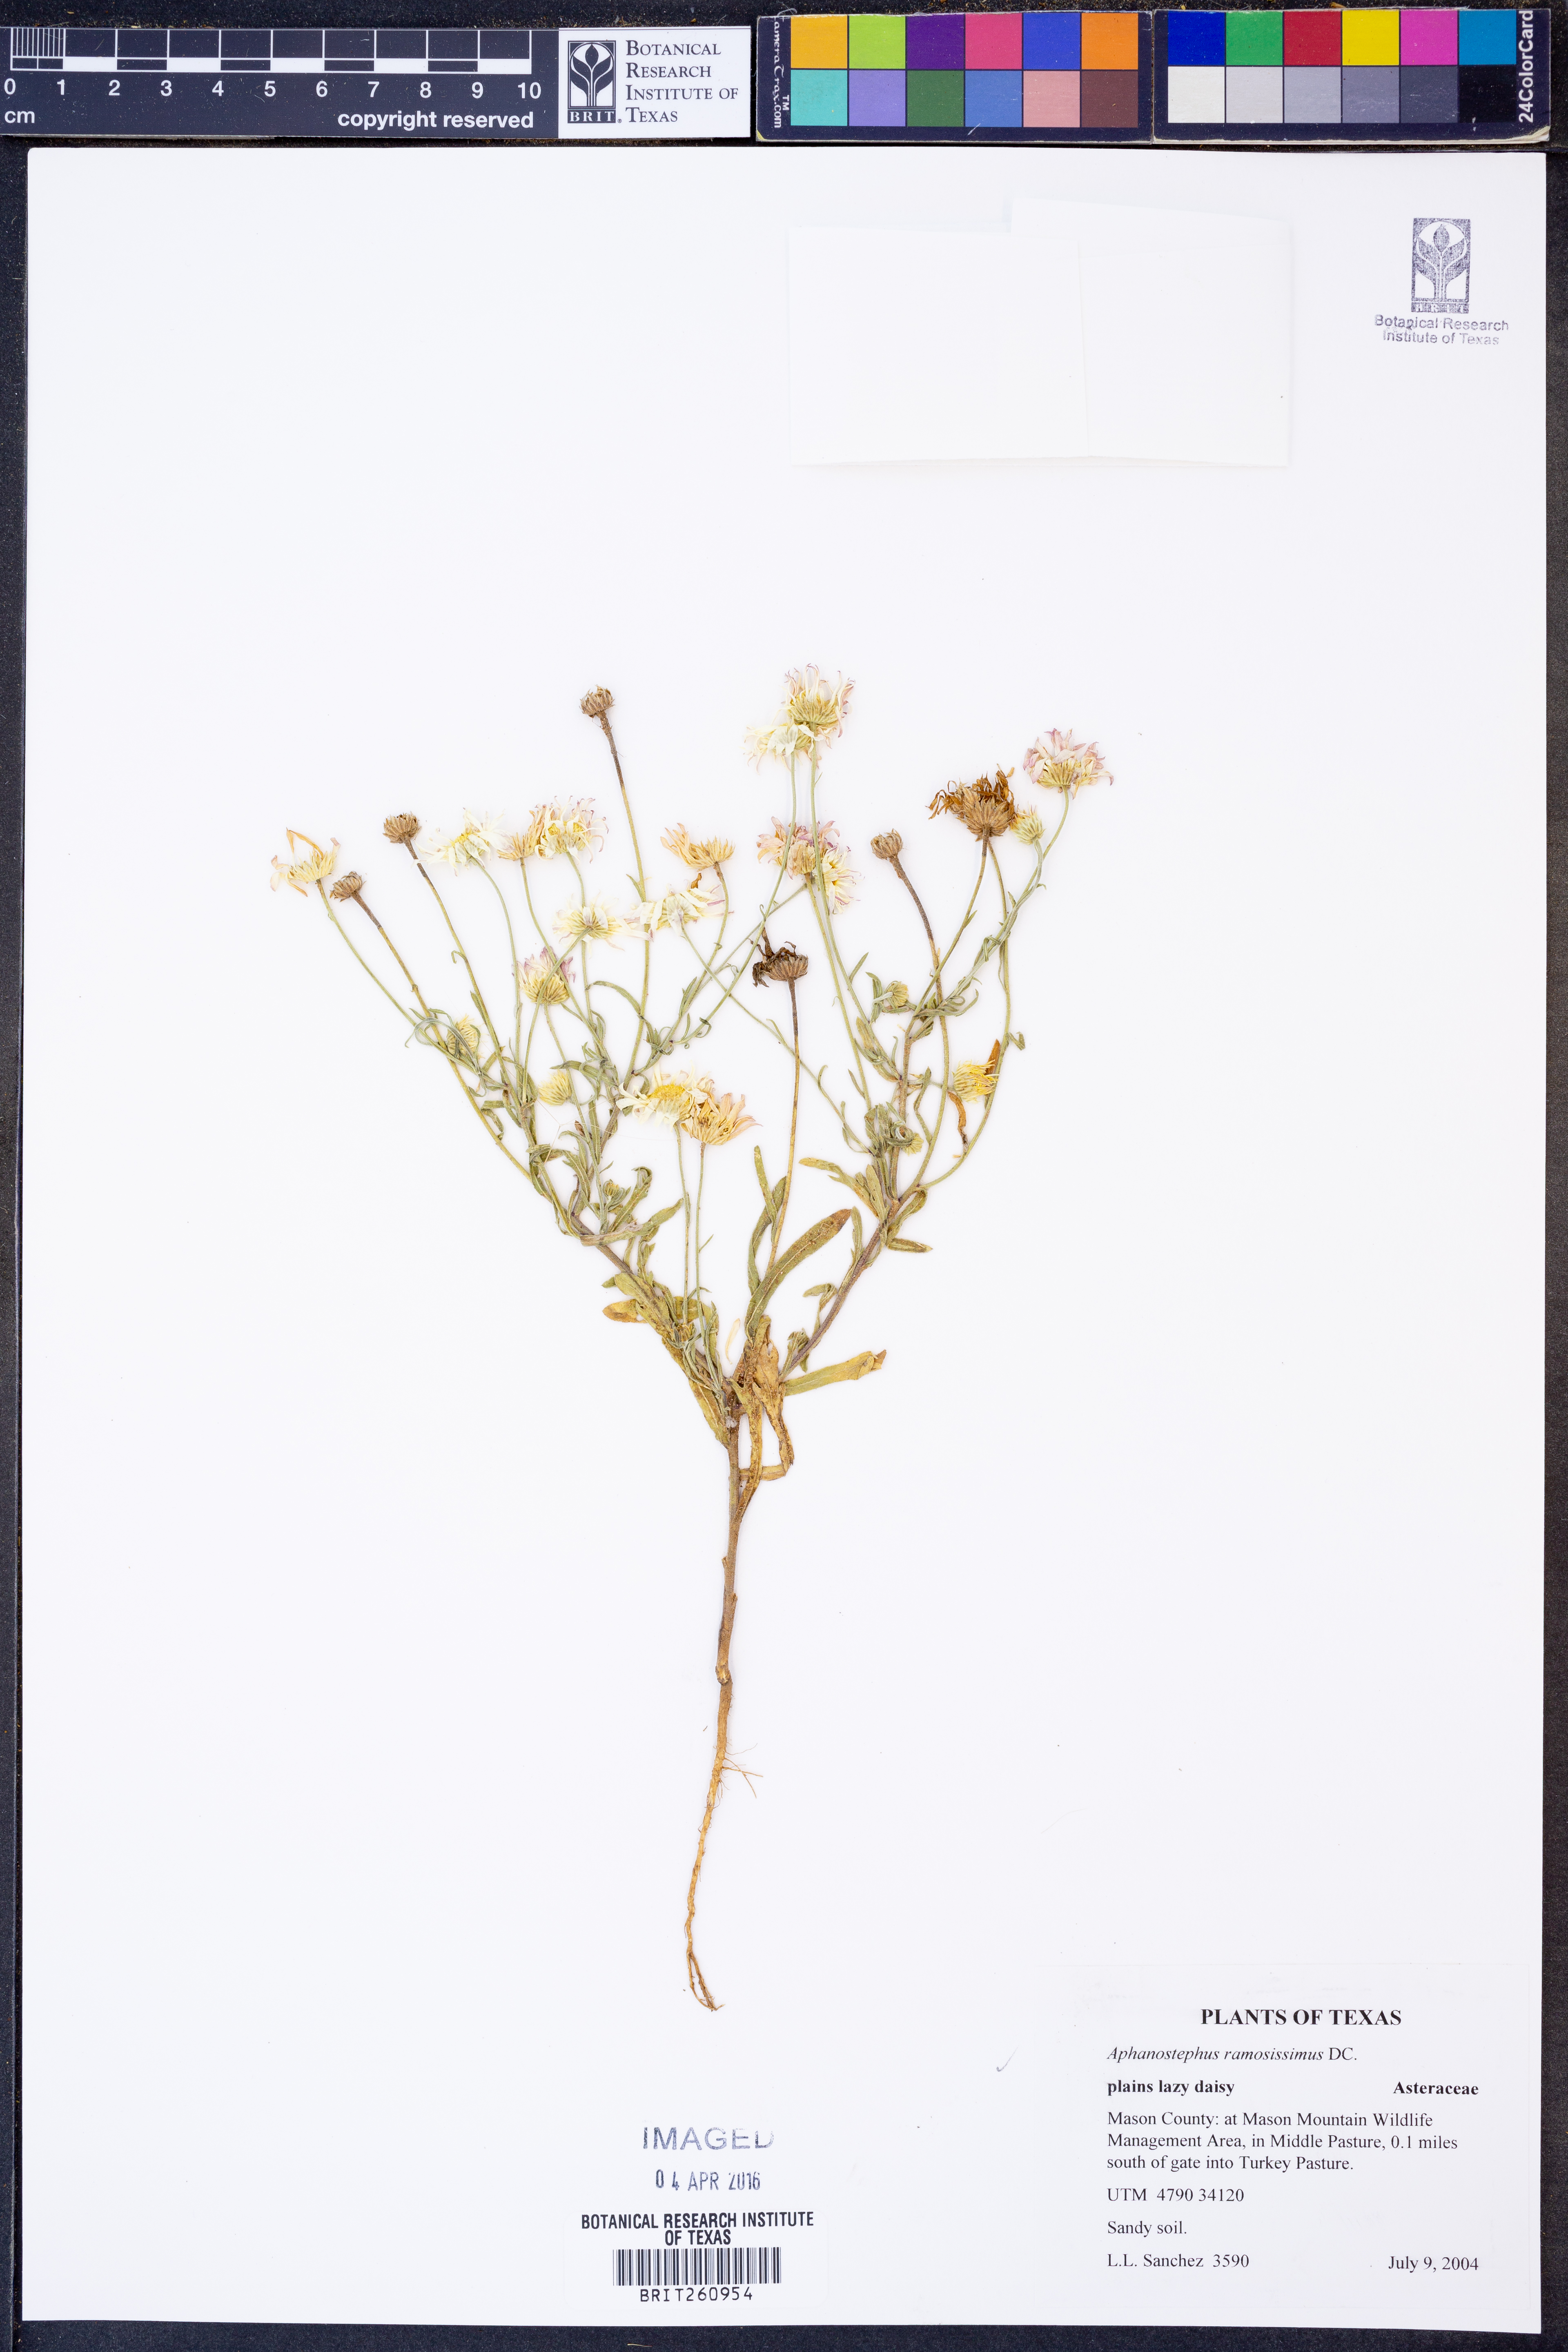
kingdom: Plantae
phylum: Tracheophyta
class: Magnoliopsida
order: Asterales
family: Asteraceae
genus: Aphanostephus
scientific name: Aphanostephus ramosissimus
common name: Plains lazy daisy
